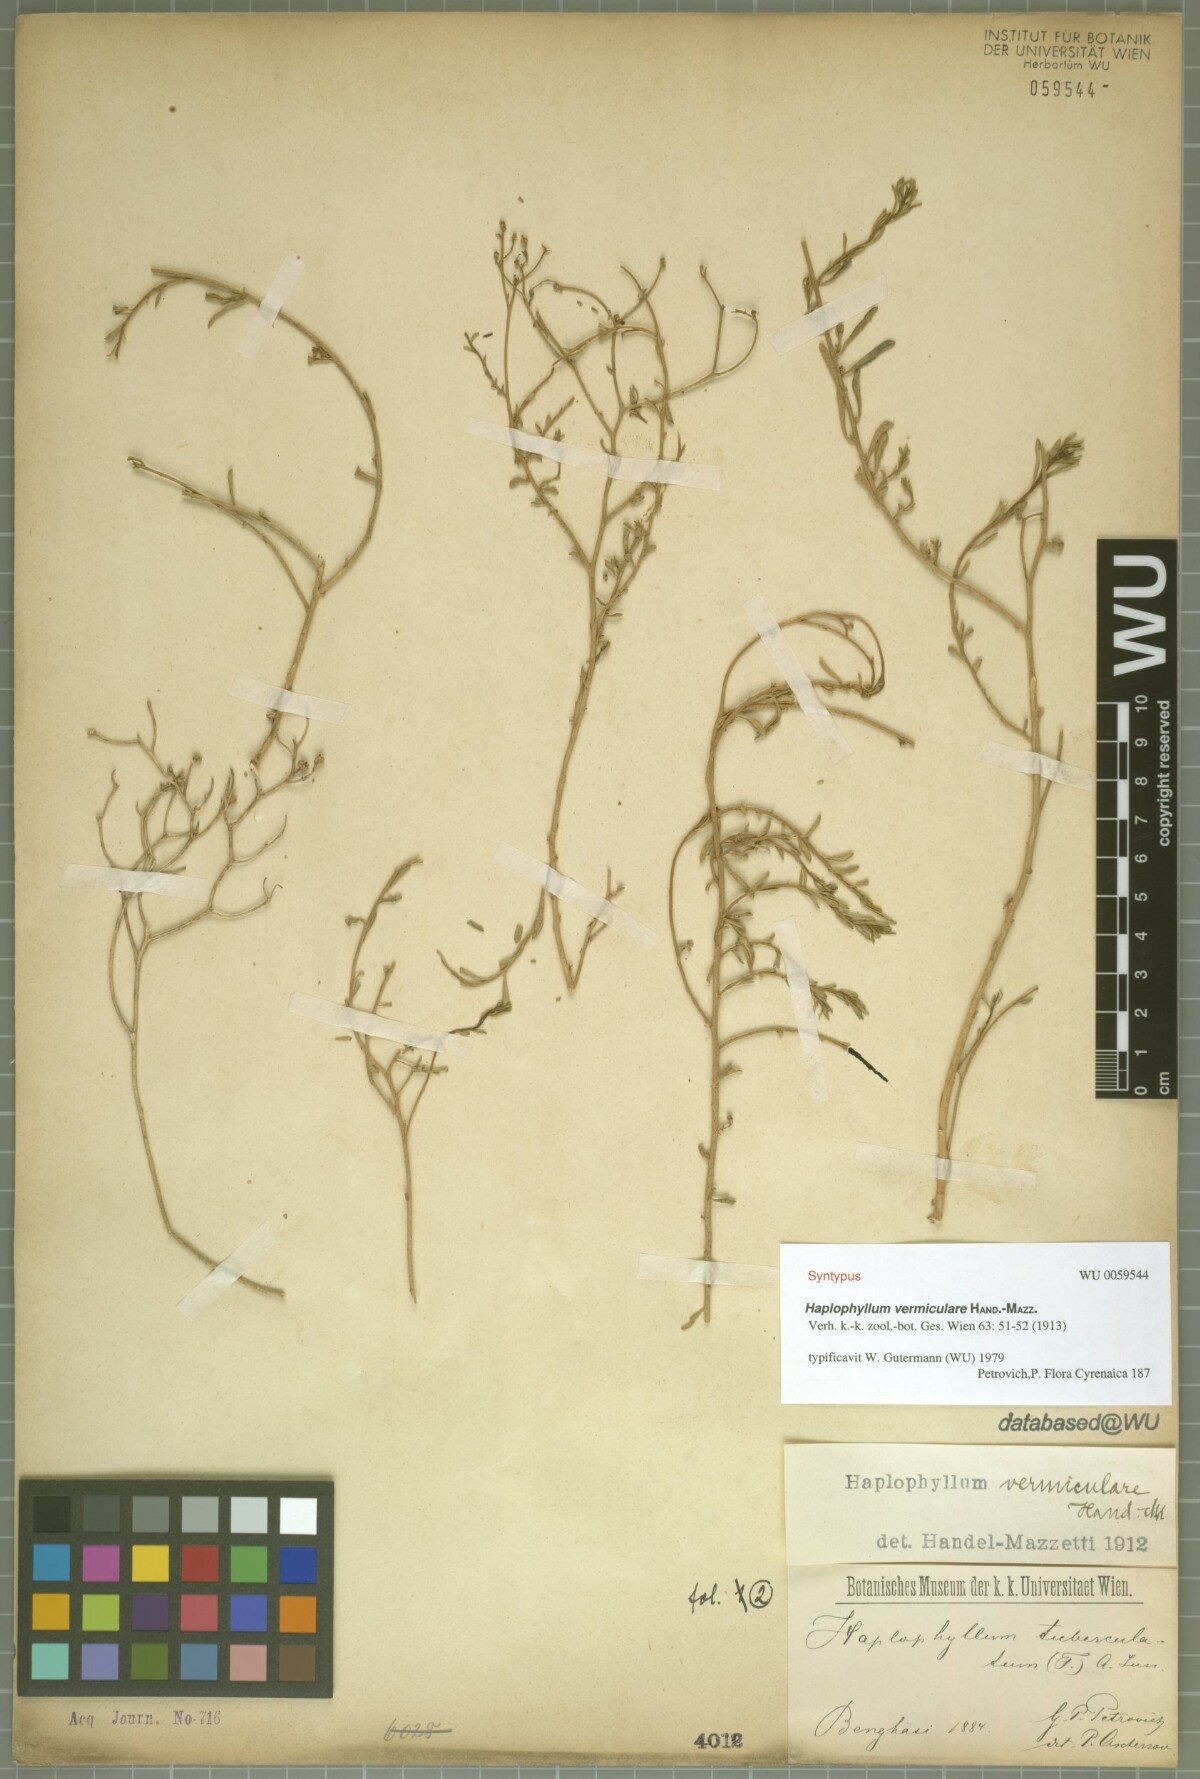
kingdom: Plantae
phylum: Tracheophyta
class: Magnoliopsida
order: Sapindales
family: Rutaceae
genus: Haplophyllum
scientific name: Haplophyllum tuberculatum
